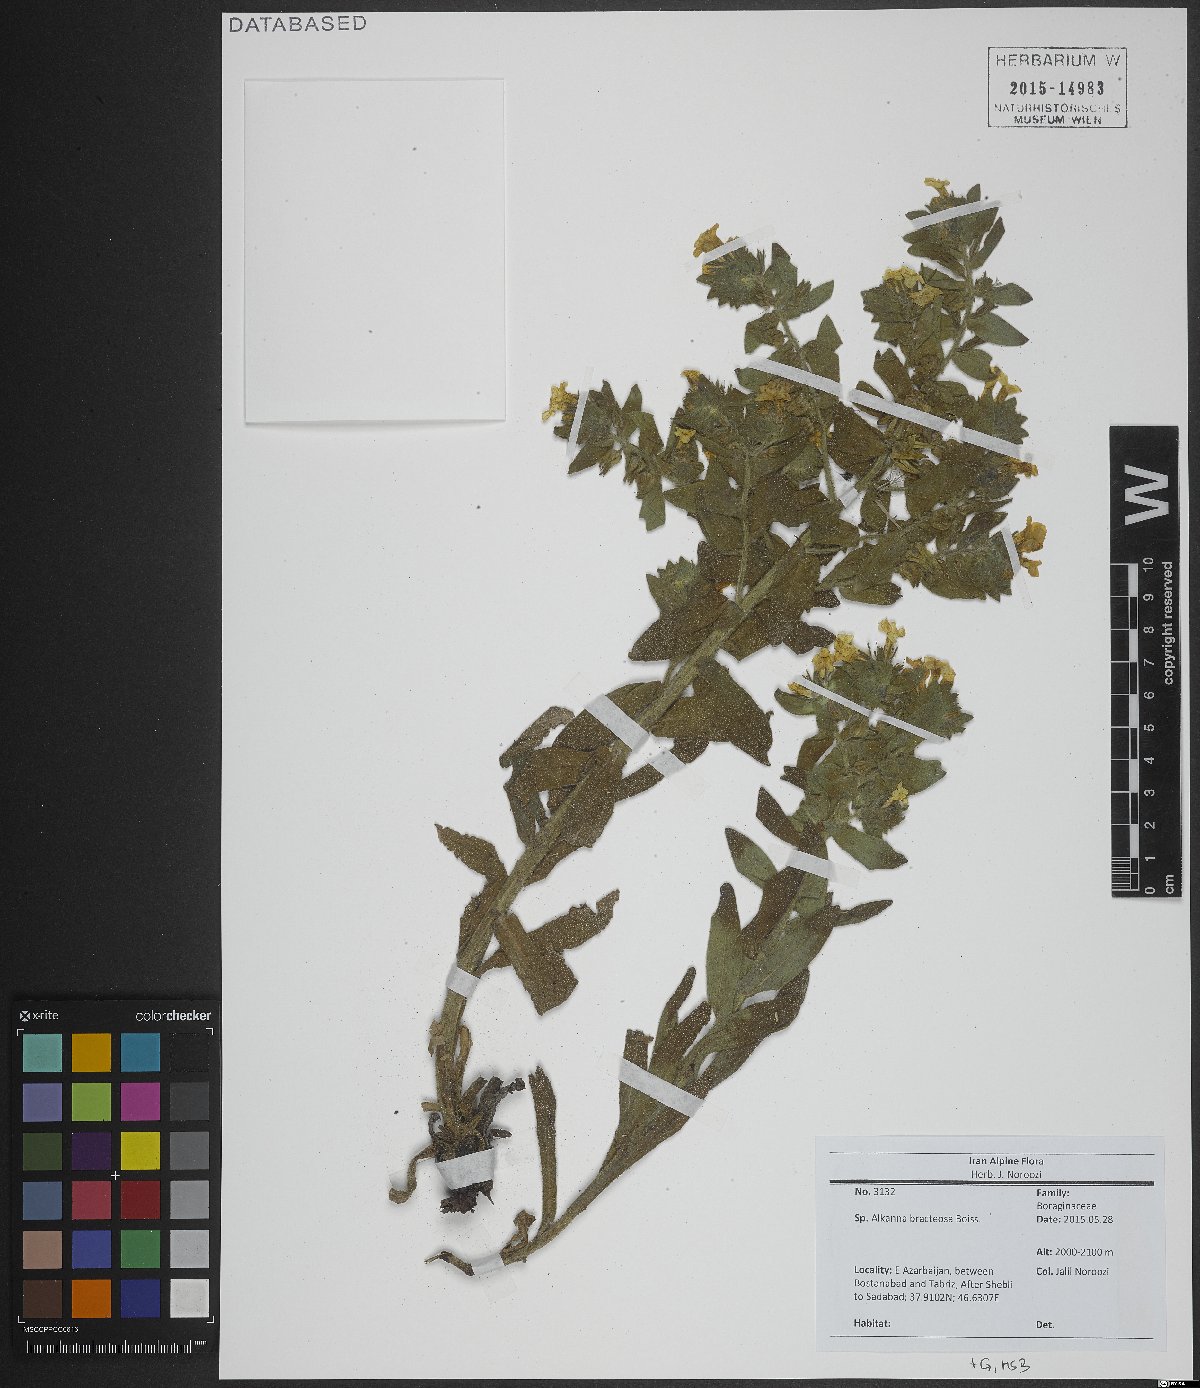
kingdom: Plantae
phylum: Tracheophyta
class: Magnoliopsida
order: Boraginales
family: Boraginaceae
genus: Alkanna
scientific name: Alkanna bracteosa
